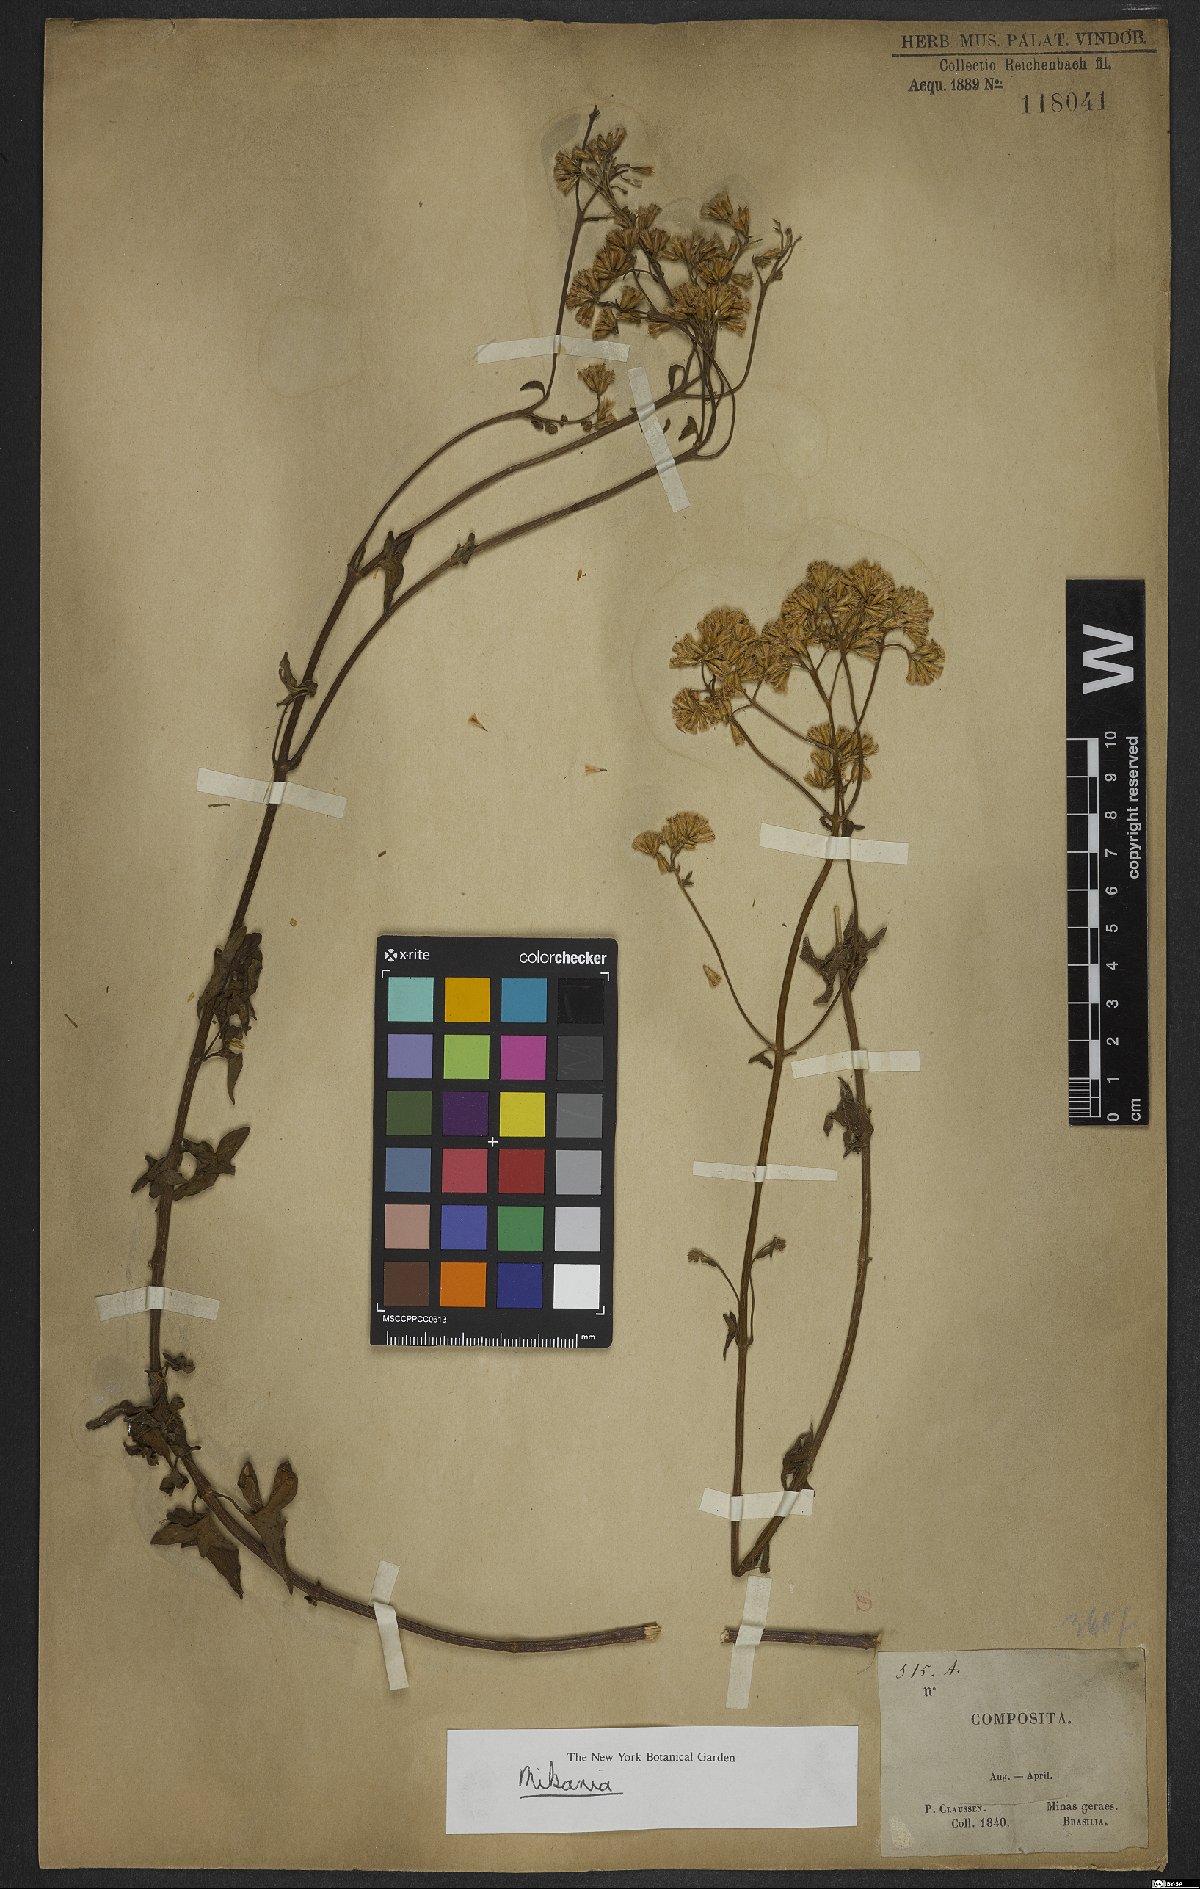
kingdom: Plantae
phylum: Tracheophyta
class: Magnoliopsida
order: Asterales
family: Asteraceae
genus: Mikania
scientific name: Mikania cordifolia
